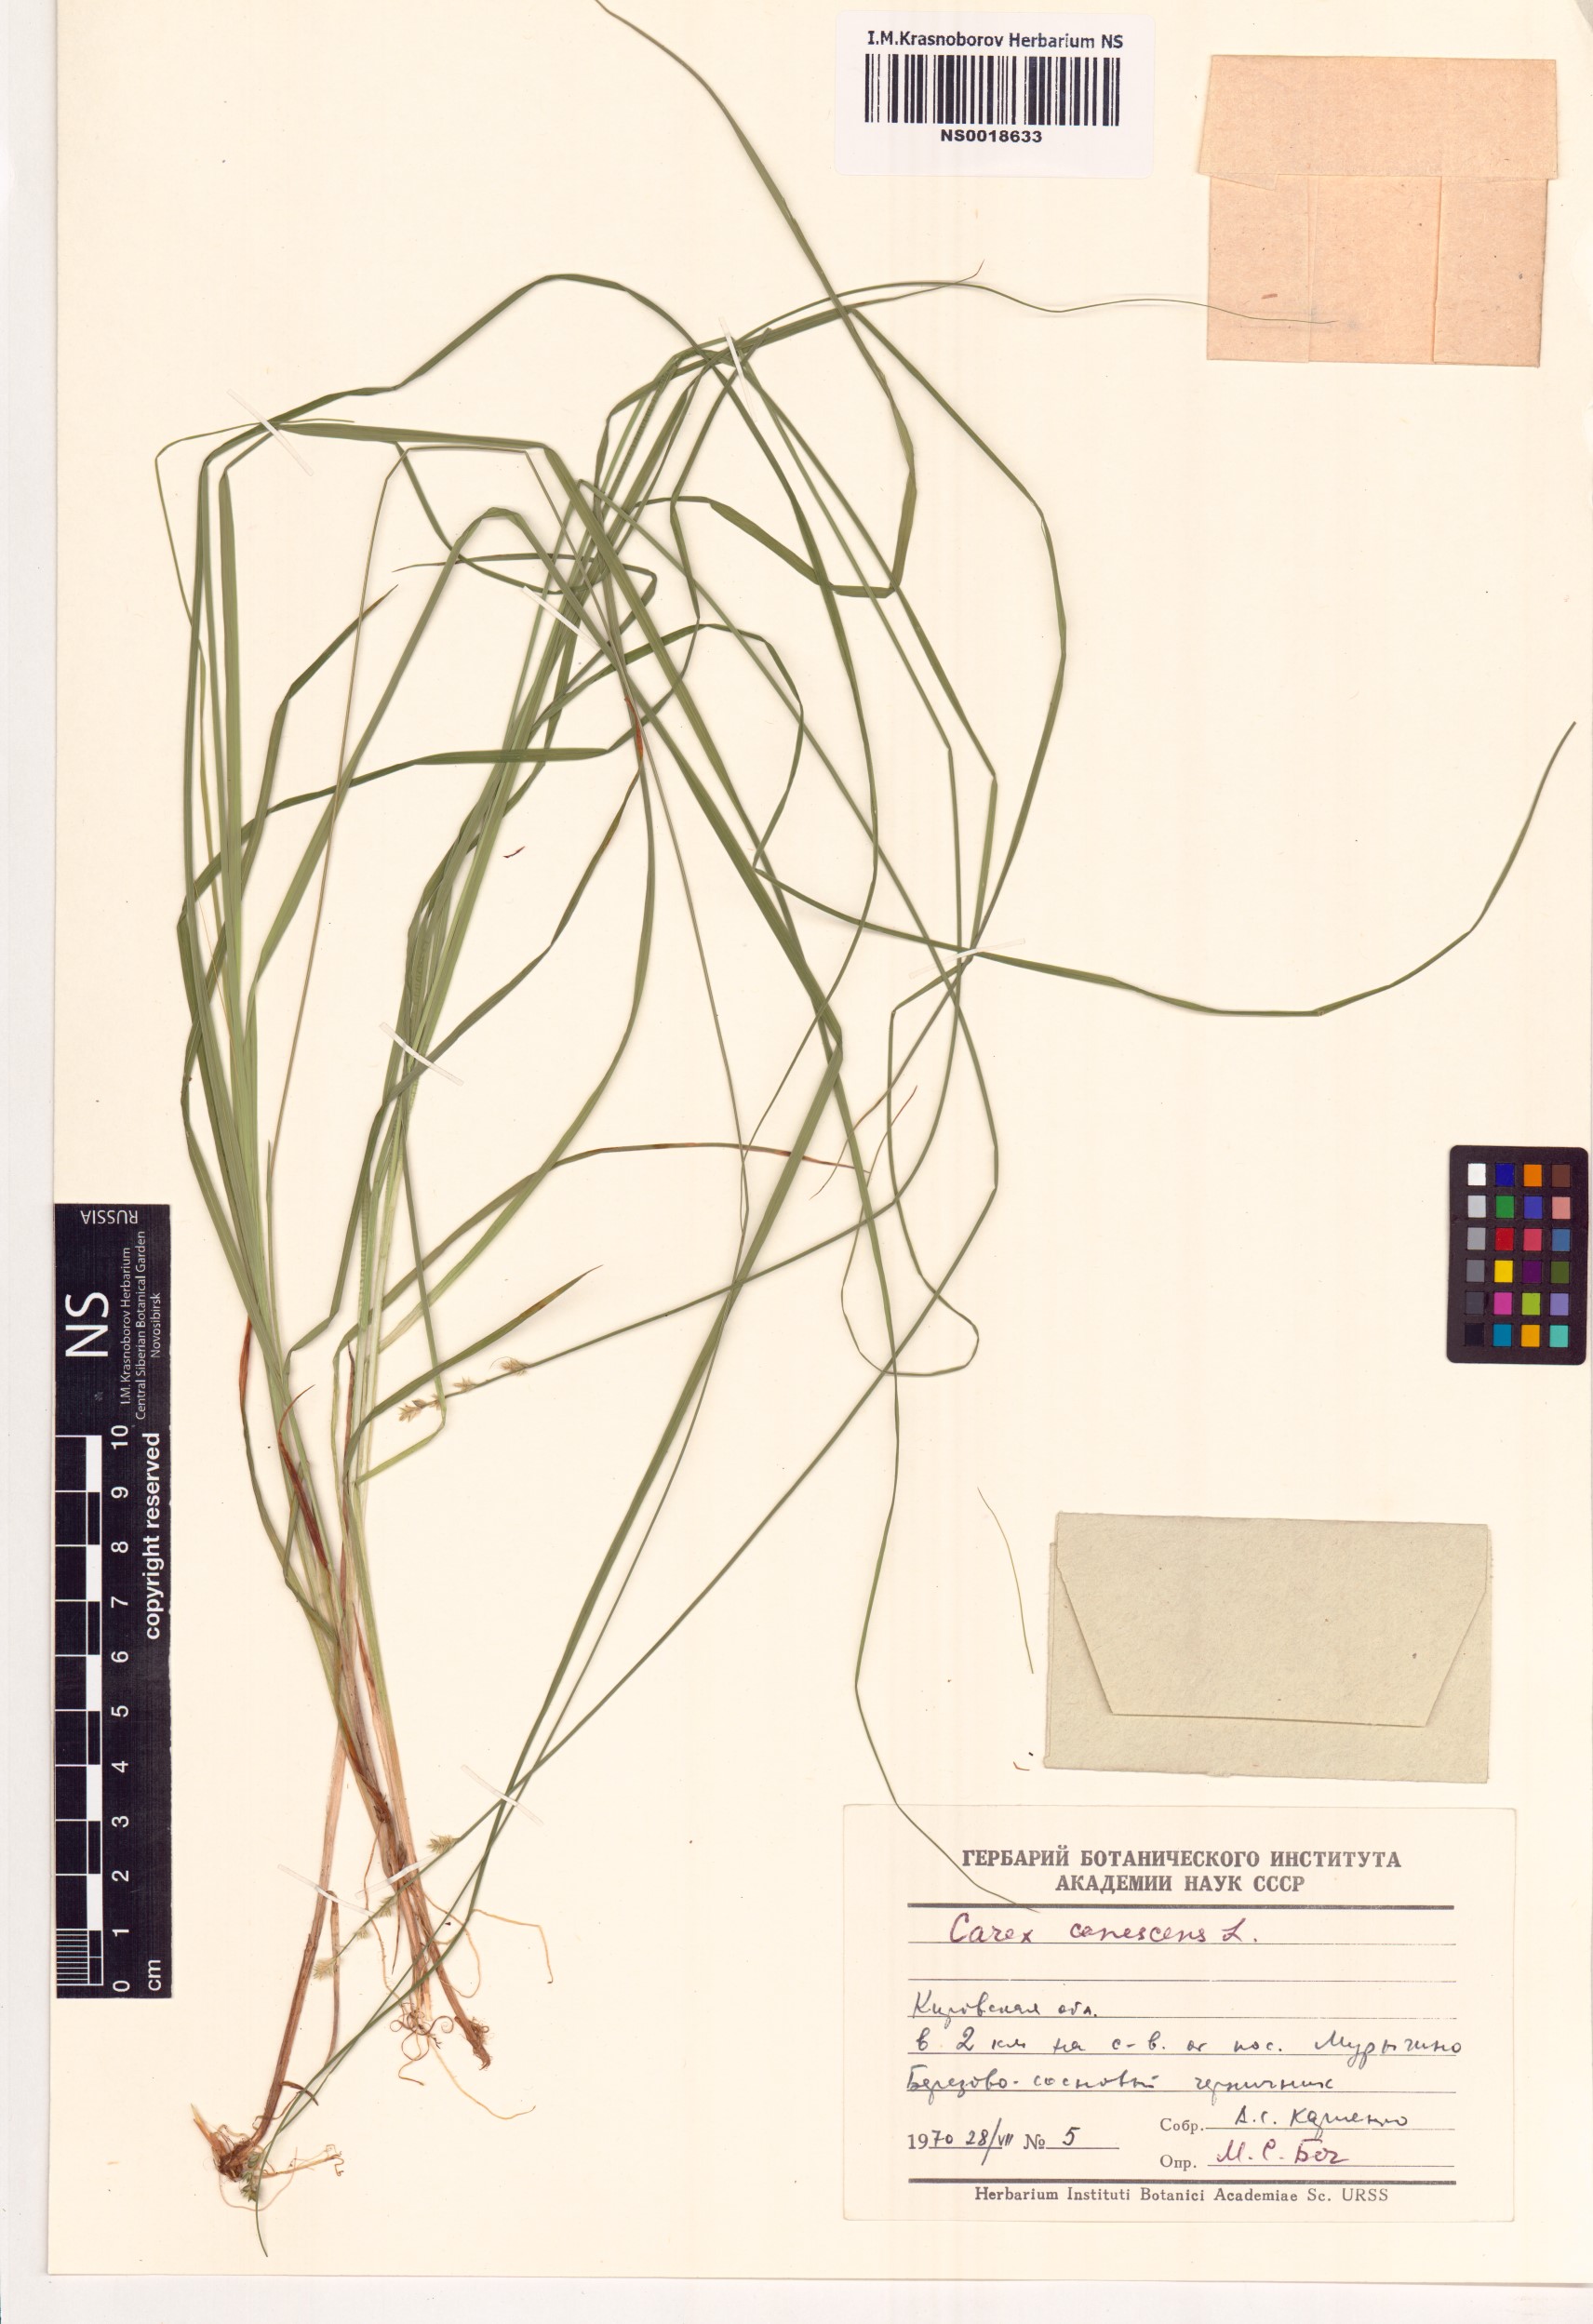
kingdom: Plantae
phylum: Tracheophyta
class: Liliopsida
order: Poales
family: Cyperaceae
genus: Carex
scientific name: Carex canescens
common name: White sedge
